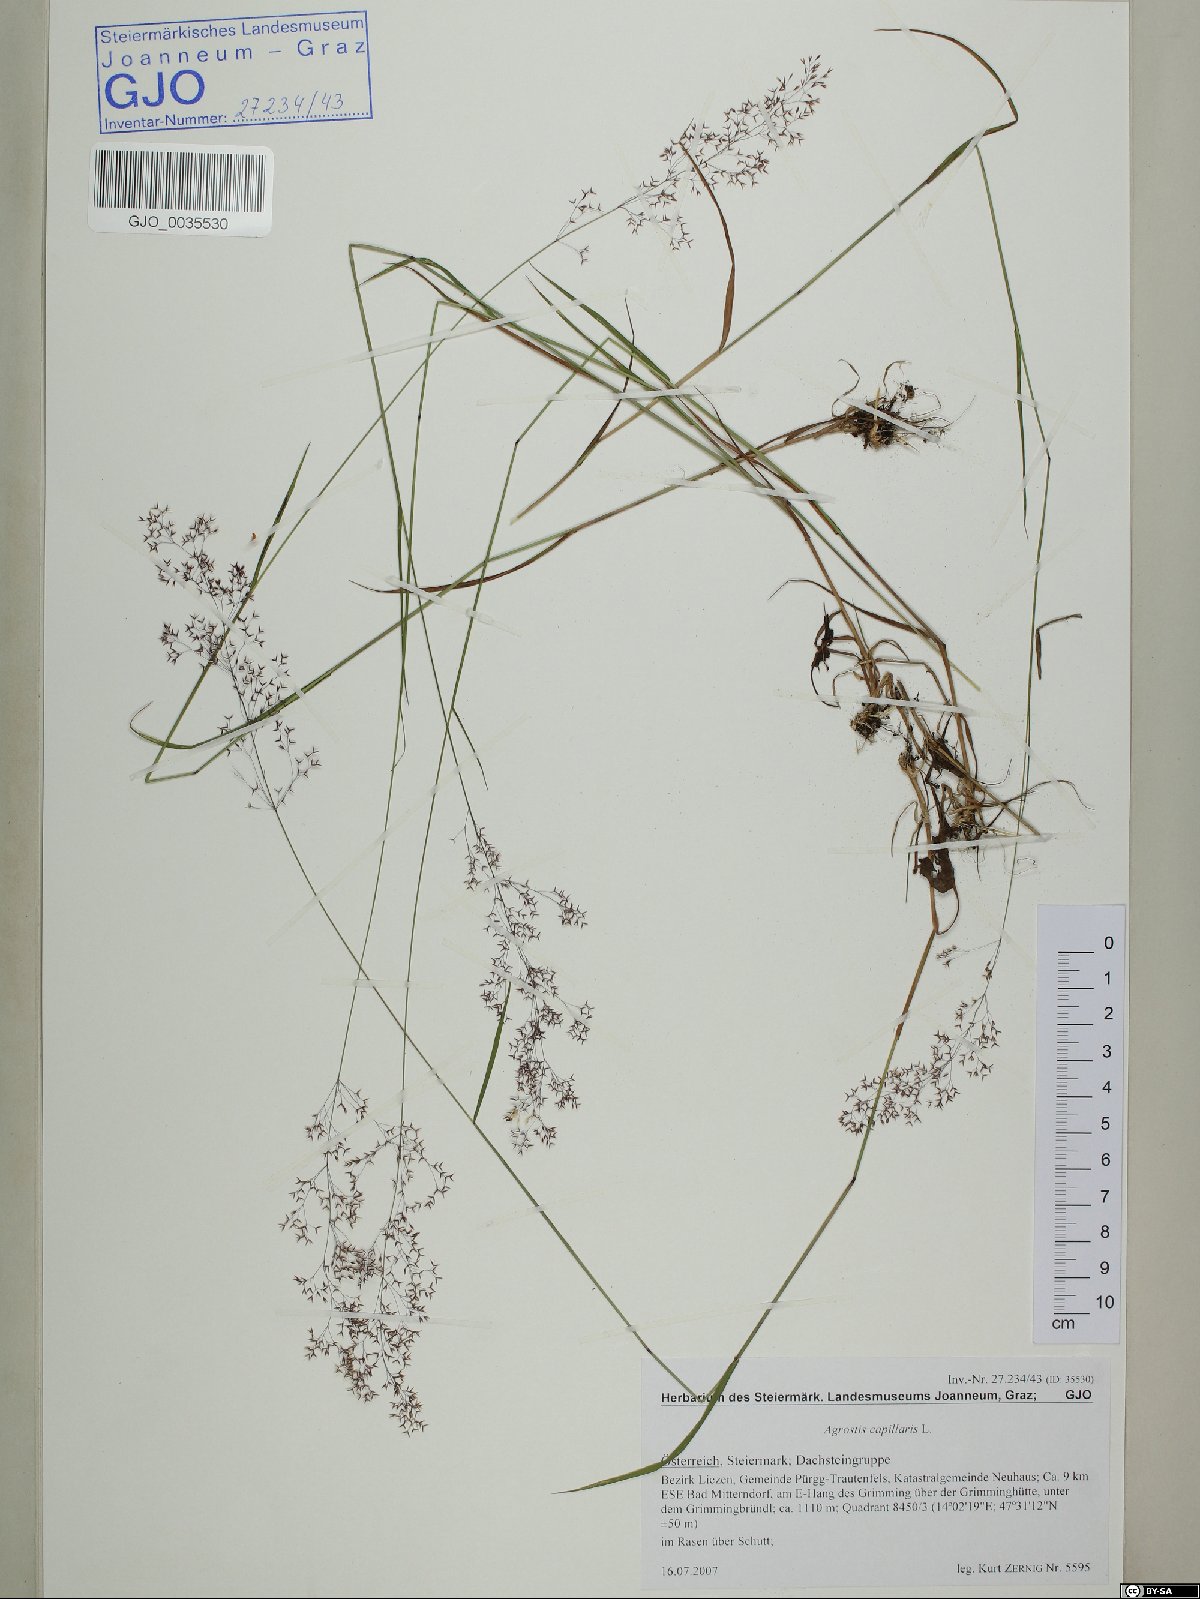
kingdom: Plantae
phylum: Tracheophyta
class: Liliopsida
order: Poales
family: Poaceae
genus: Agrostis
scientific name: Agrostis capillaris
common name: Colonial bentgrass
